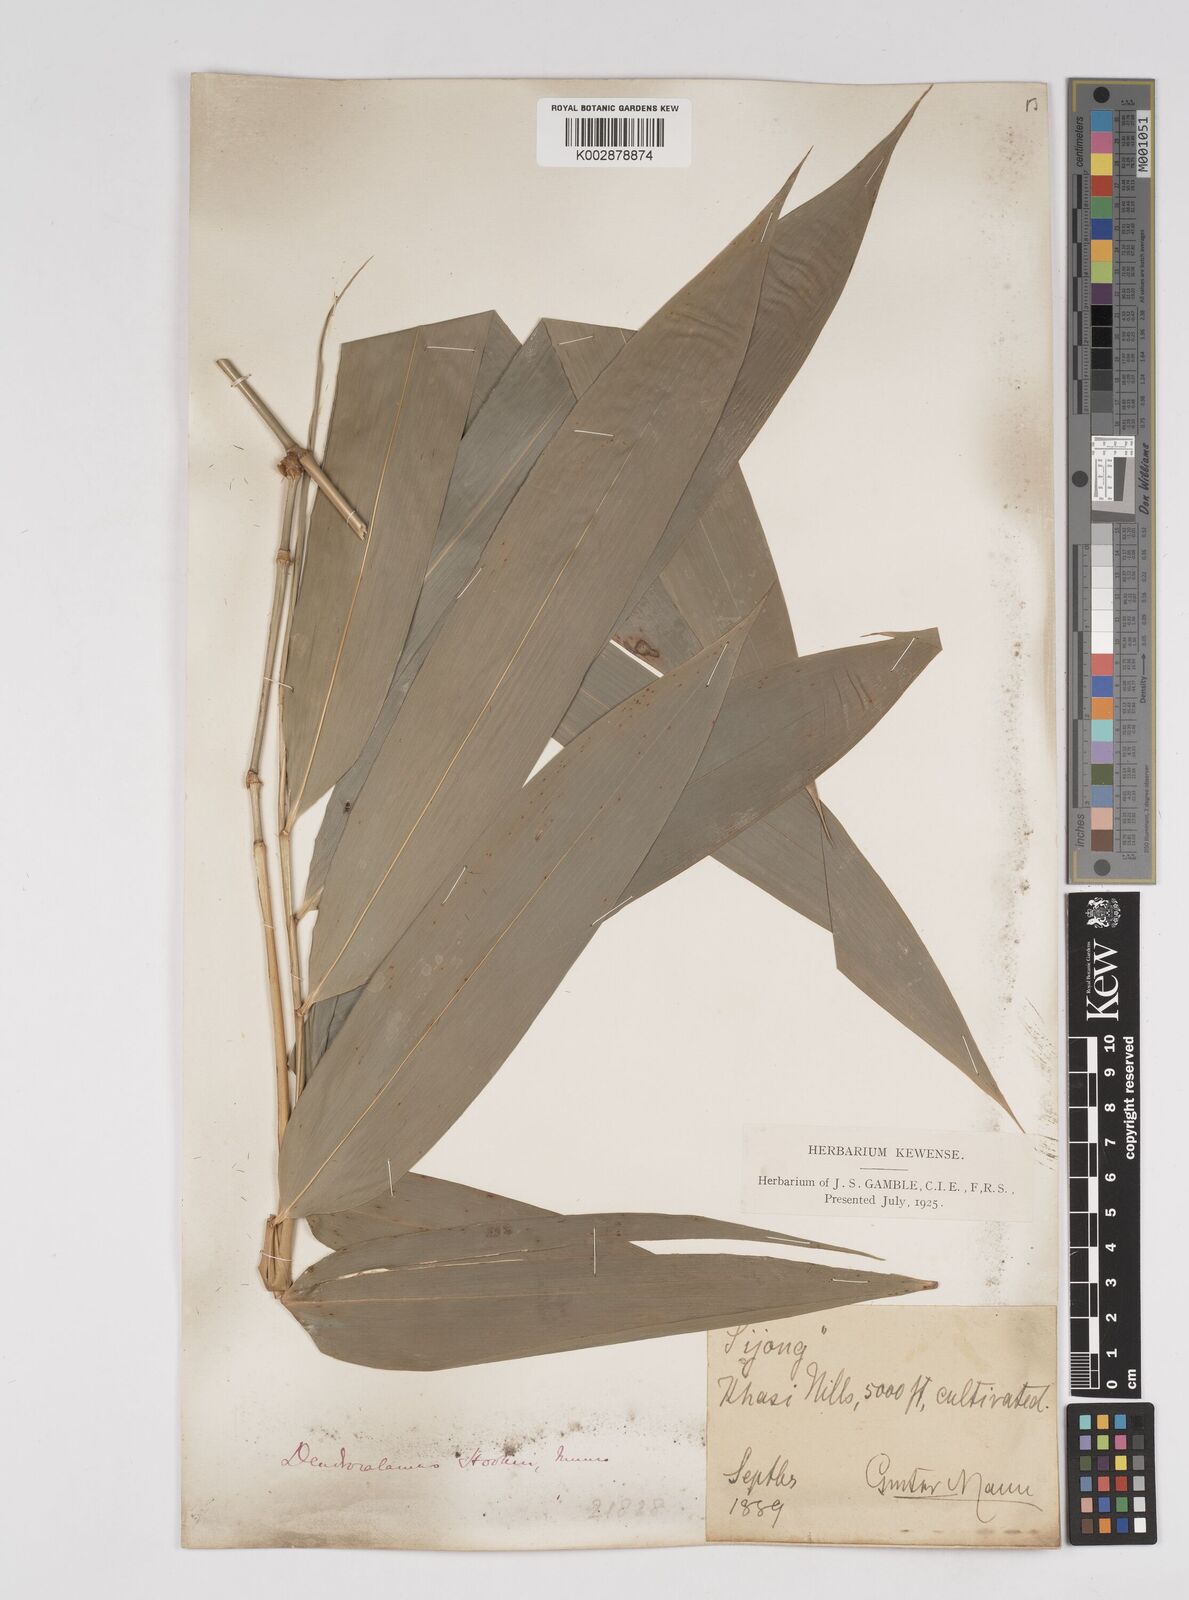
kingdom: Plantae
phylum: Tracheophyta
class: Liliopsida
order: Poales
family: Poaceae
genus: Dendrocalamus
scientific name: Dendrocalamus hookeri
